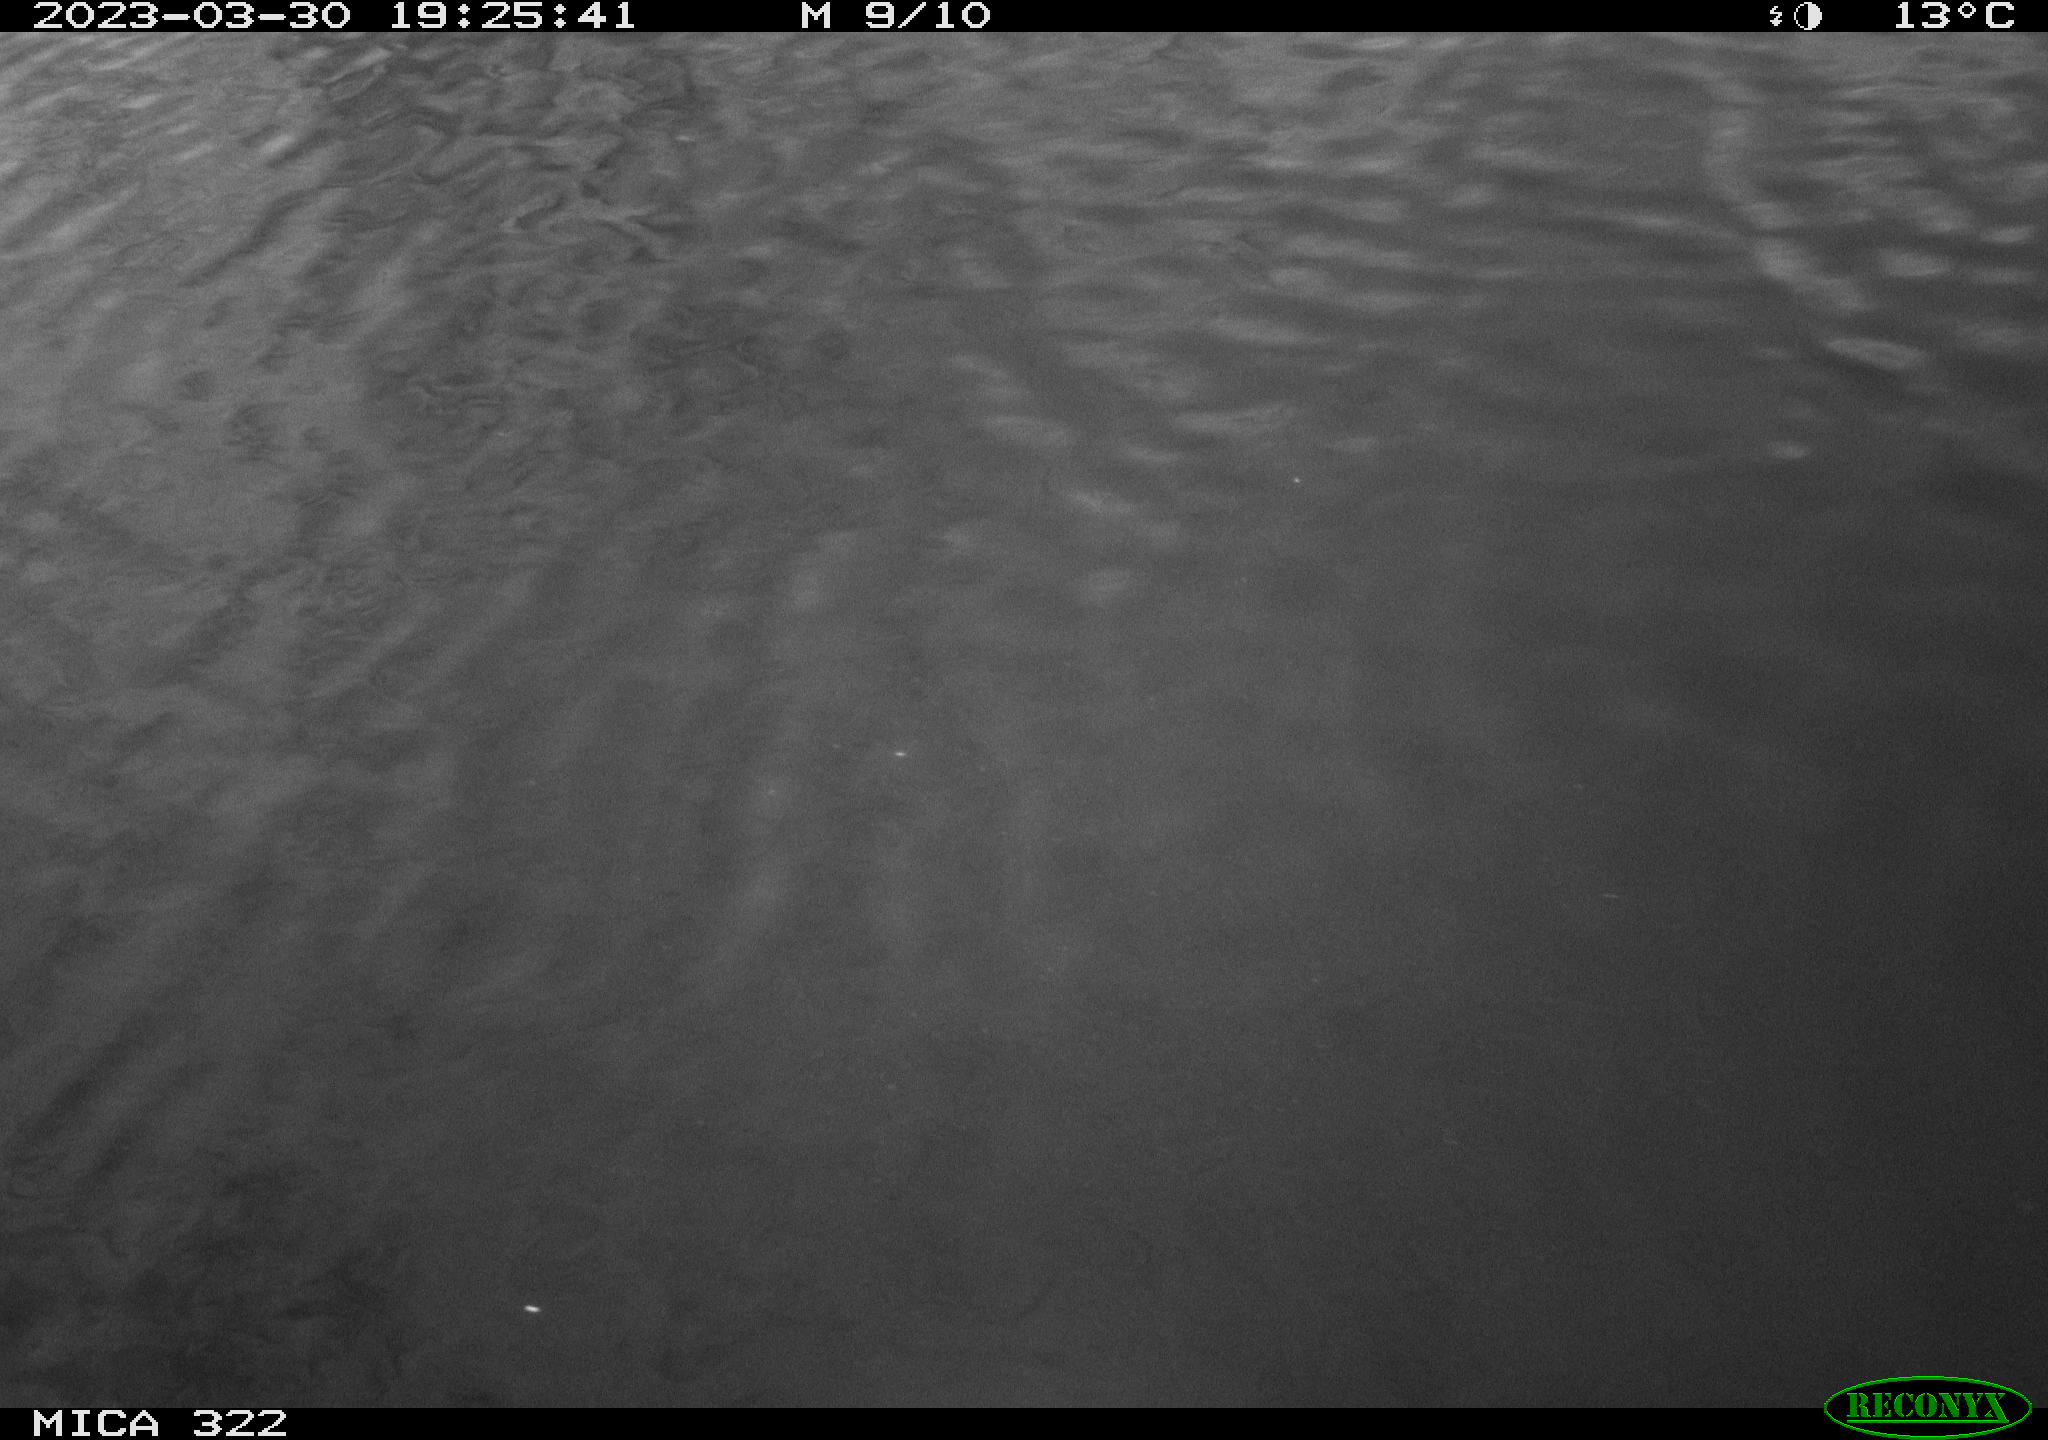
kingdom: Animalia
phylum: Chordata
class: Aves
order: Anseriformes
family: Anatidae
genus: Anas
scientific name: Anas
